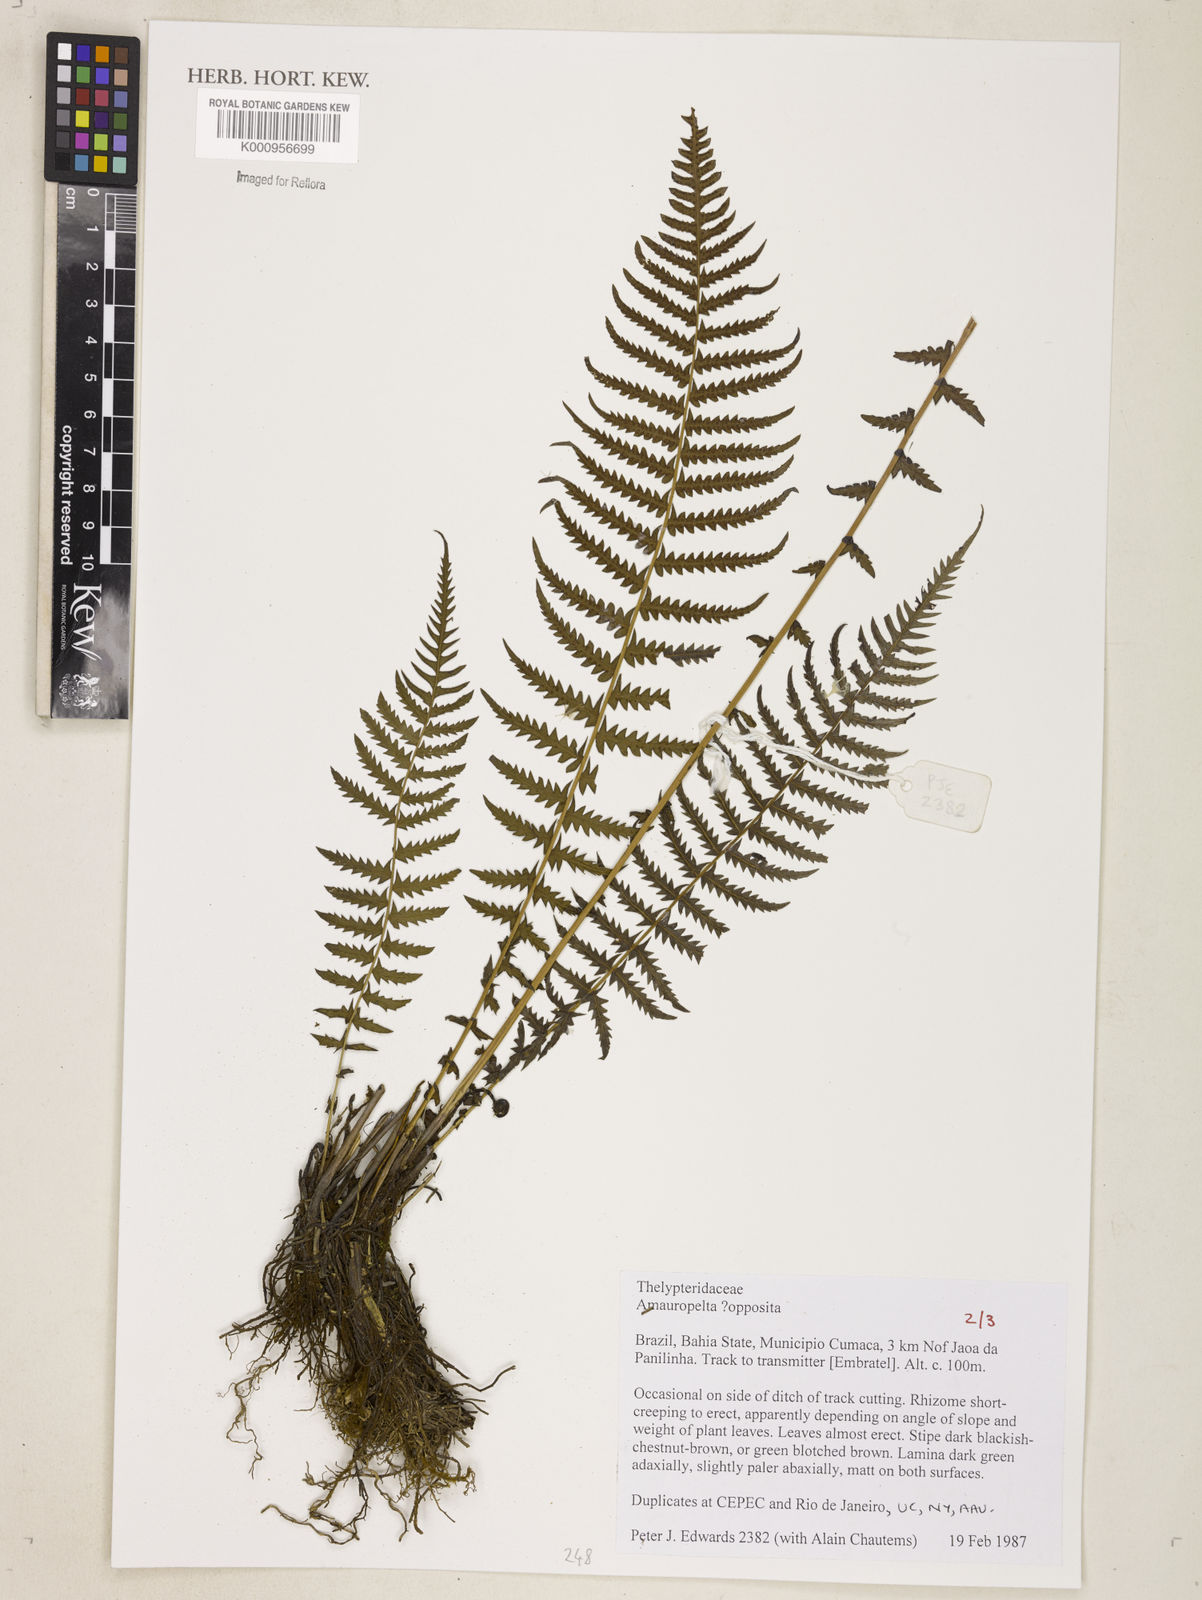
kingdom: Plantae
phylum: Tracheophyta
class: Polypodiopsida
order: Polypodiales
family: Thelypteridaceae
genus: Amauropelta
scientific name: Amauropelta opposita
